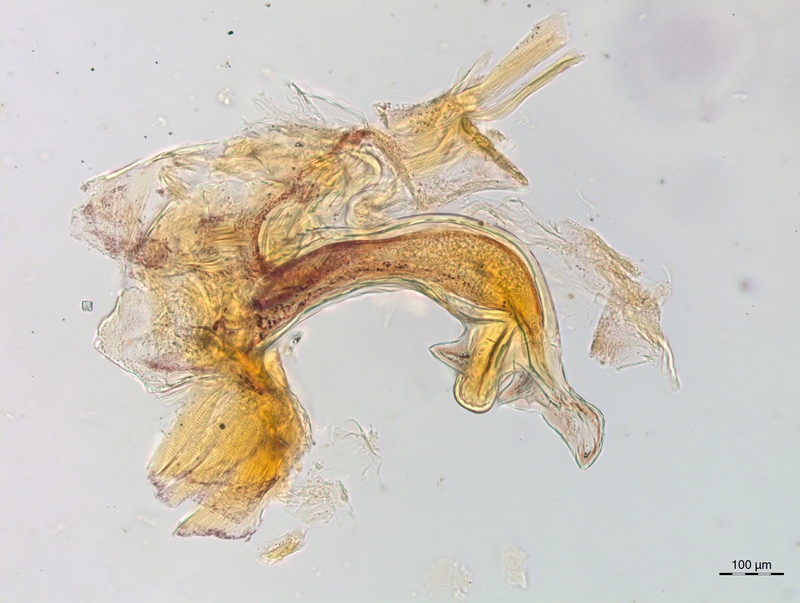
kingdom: Animalia
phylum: Arthropoda
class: Diplopoda
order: Chordeumatida
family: Craspedosomatidae
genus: Craspedosoma
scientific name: Craspedosoma transsilvanicum
